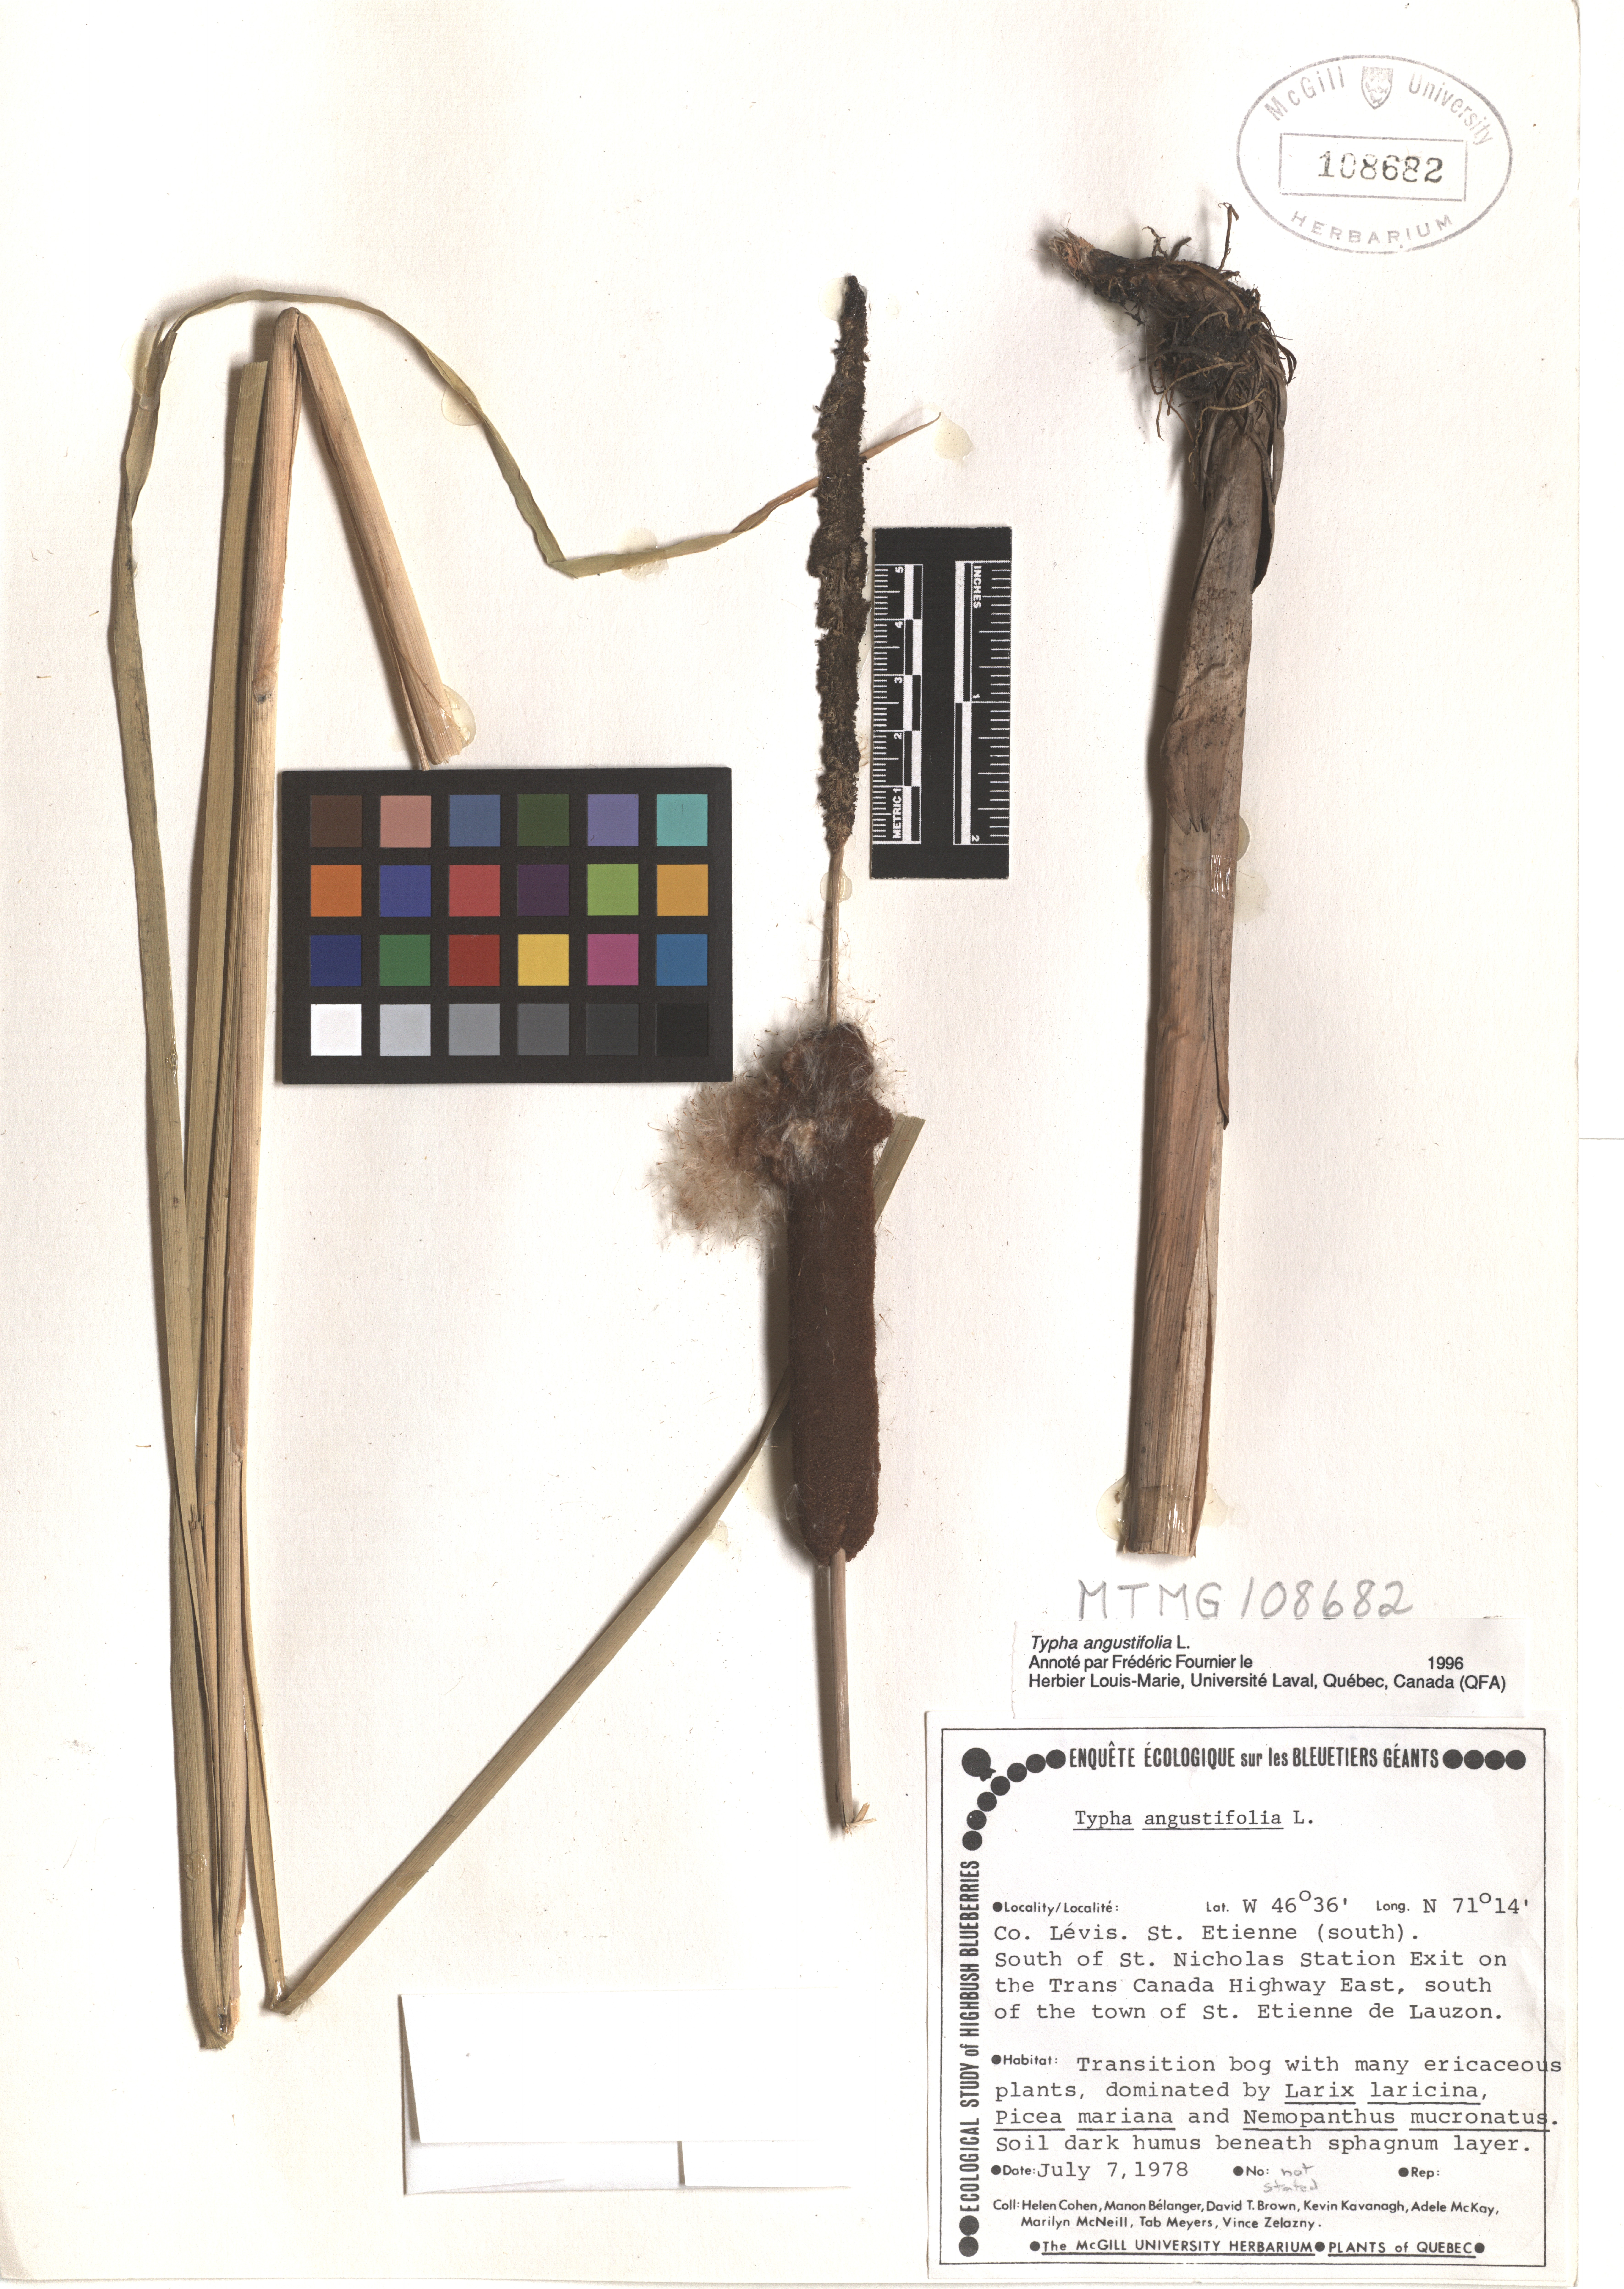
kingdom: Plantae
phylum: Tracheophyta
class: Liliopsida
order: Poales
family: Typhaceae
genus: Typha
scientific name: Typha angustifolia
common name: Lesser bulrush
